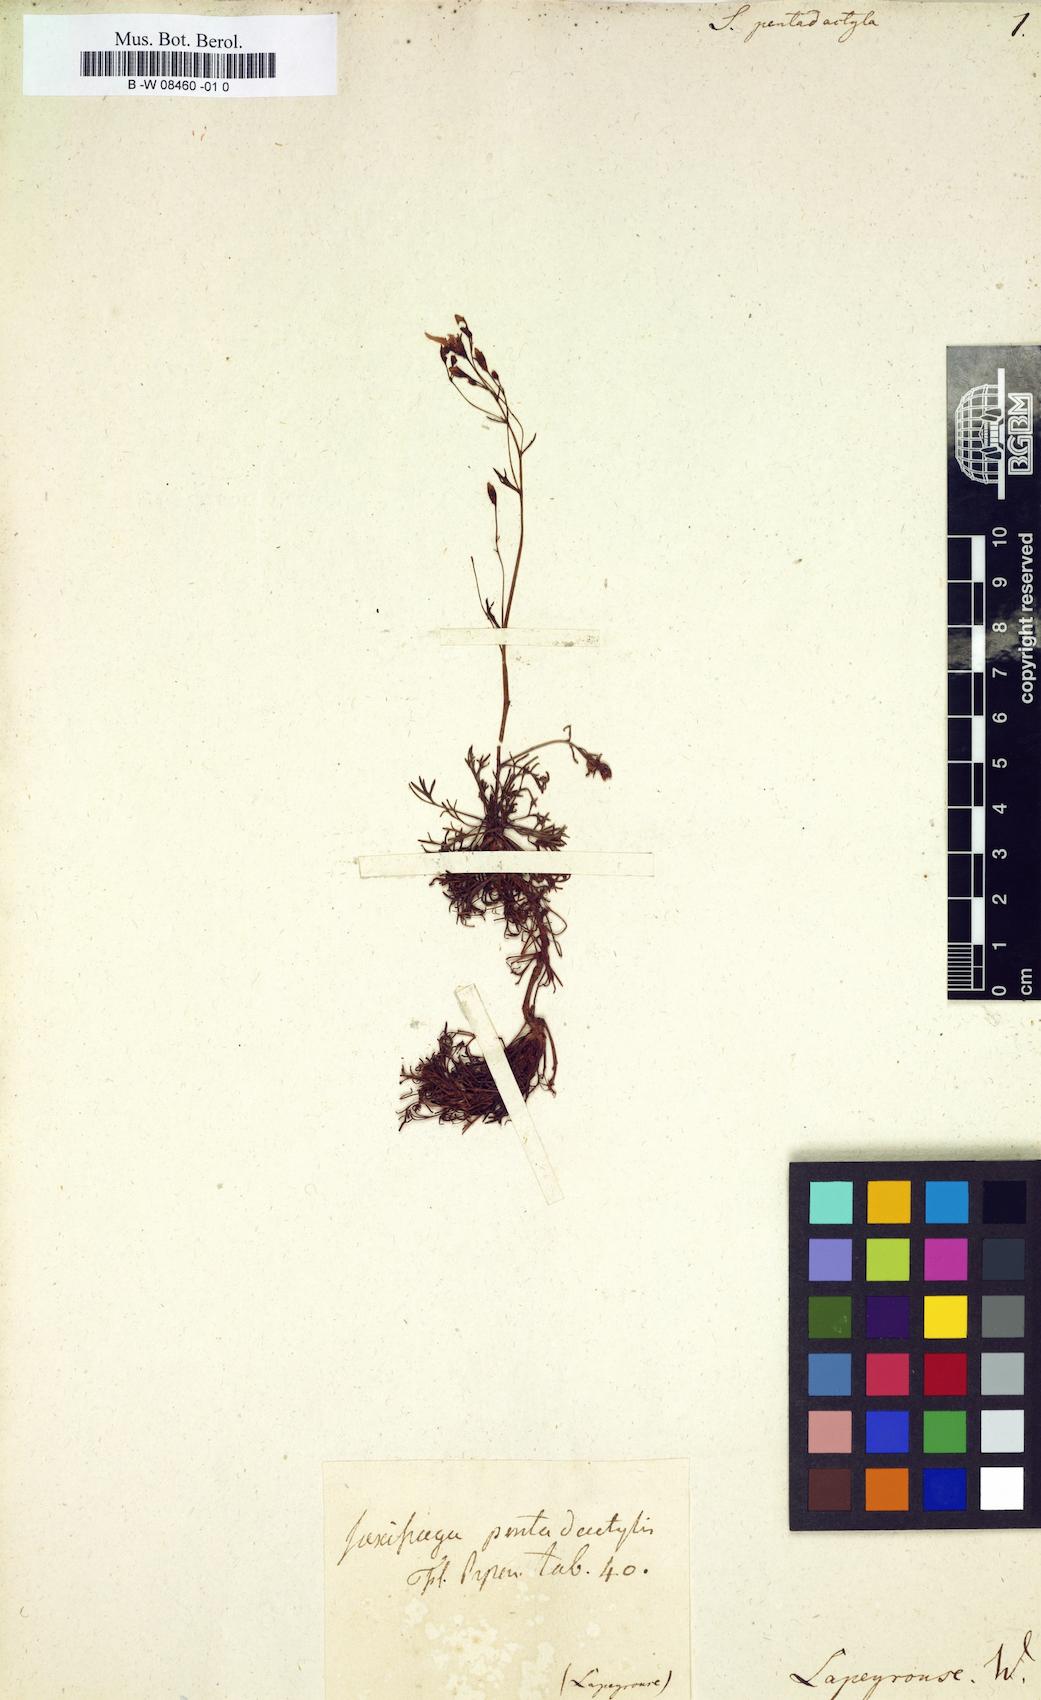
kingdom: Plantae
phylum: Tracheophyta
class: Magnoliopsida
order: Saxifragales
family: Saxifragaceae
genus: Saxifraga
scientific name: Saxifraga pentadactylis
